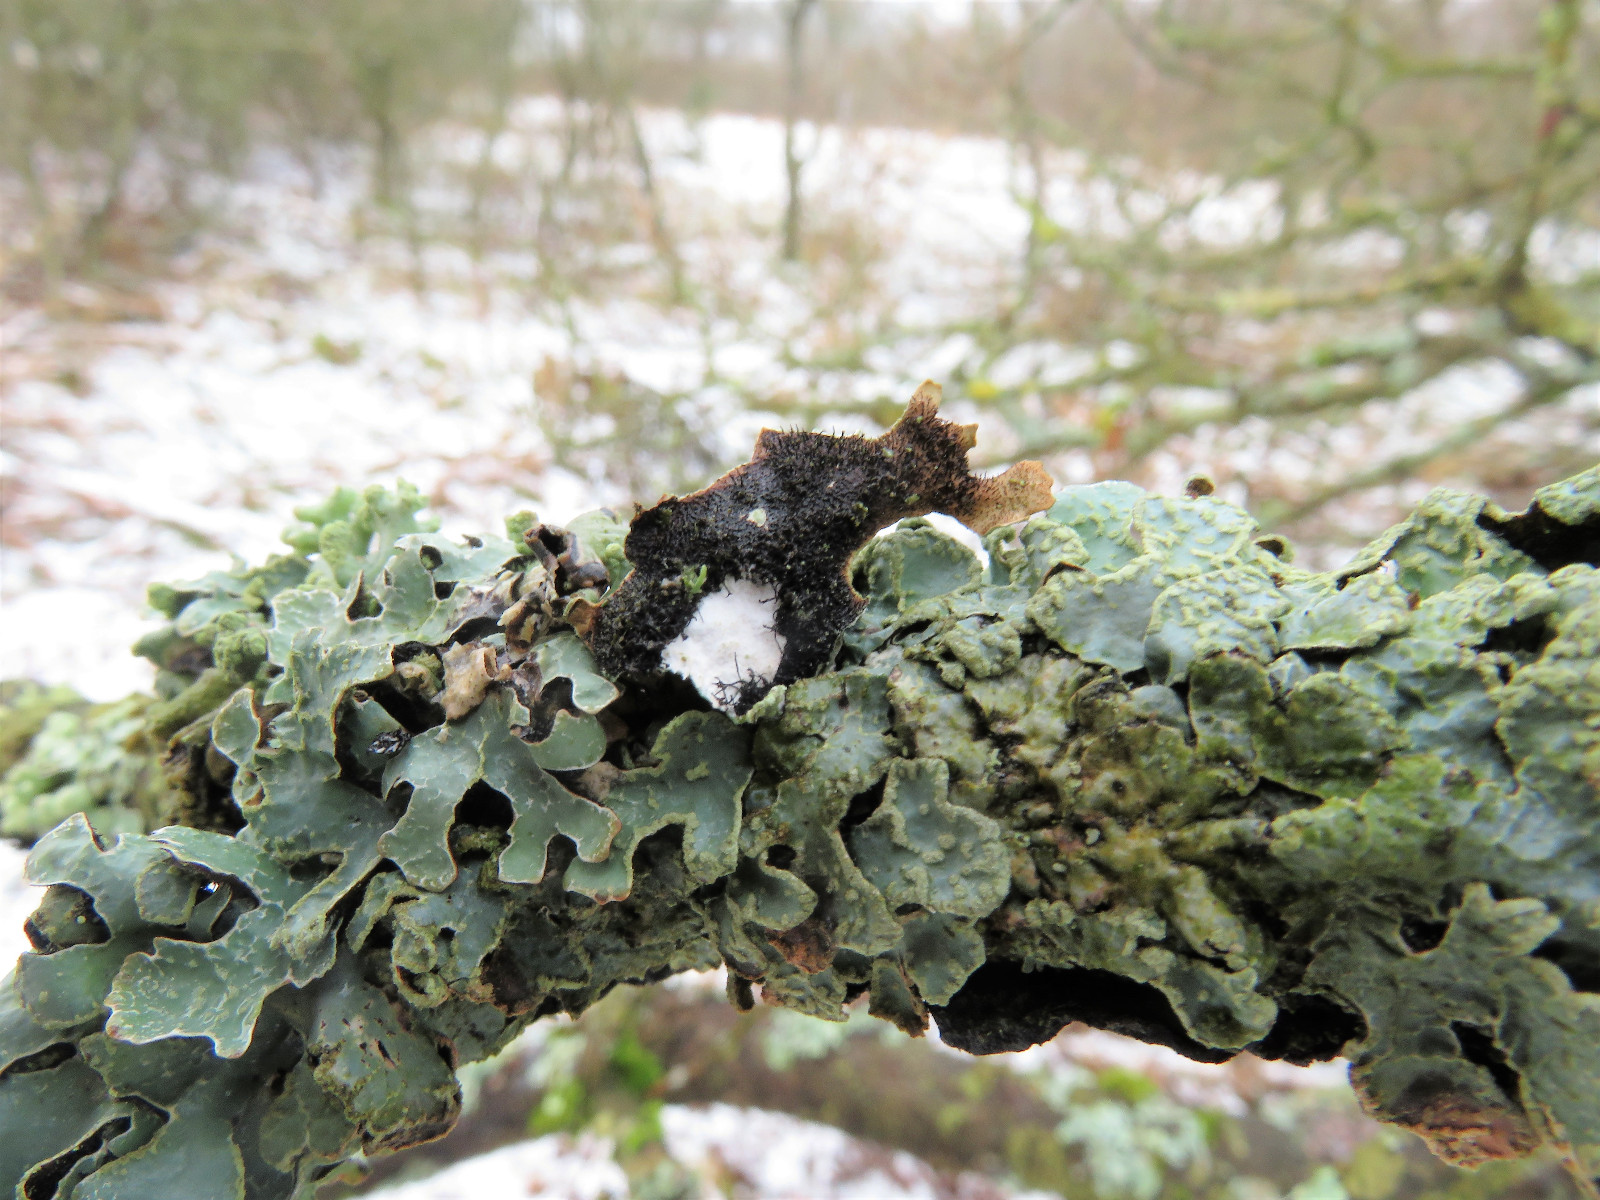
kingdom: Fungi
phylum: Ascomycota
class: Lecanoromycetes
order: Lecanorales
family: Parmeliaceae
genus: Parmelia
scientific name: Parmelia sulcata
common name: rynket skållav
